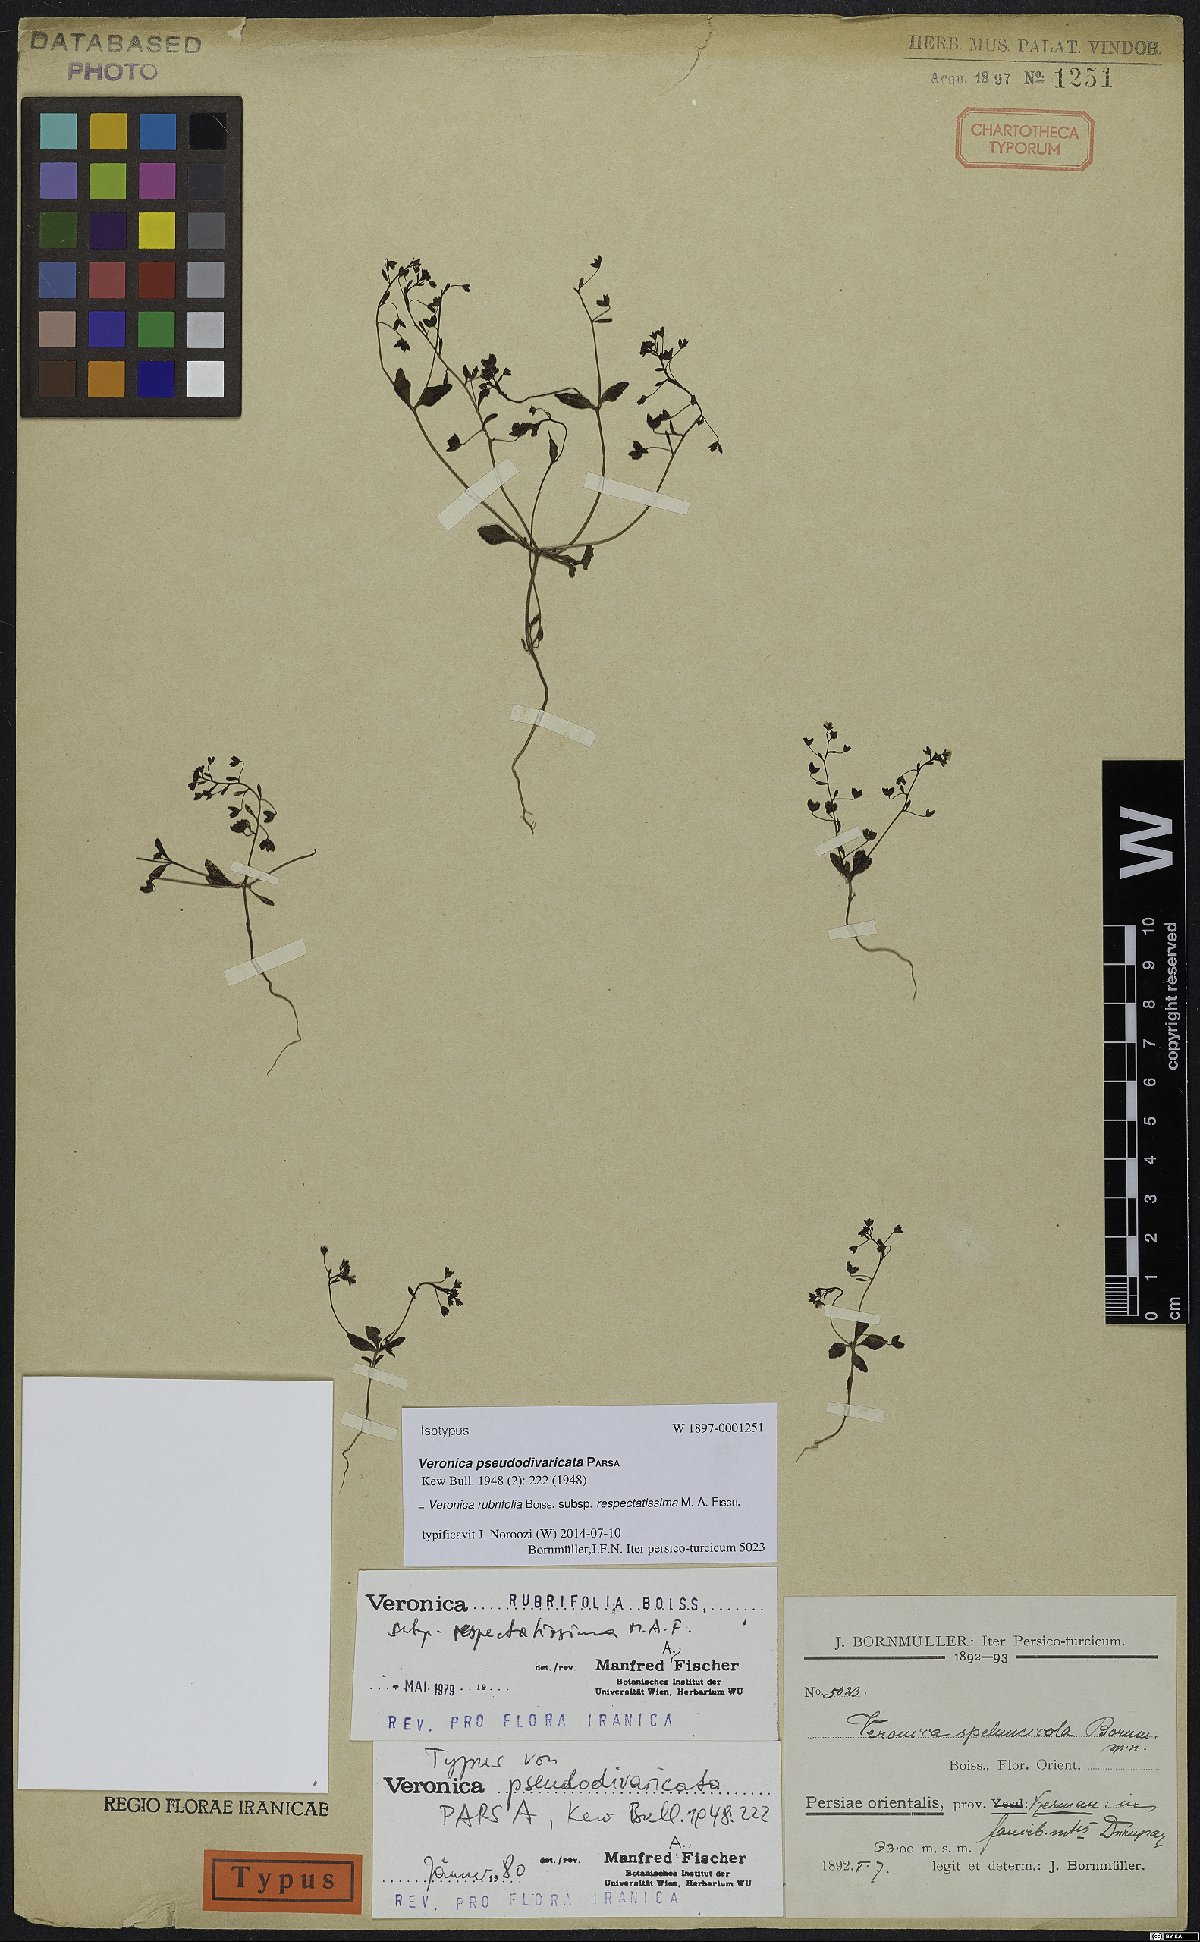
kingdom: Plantae
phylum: Tracheophyta
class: Magnoliopsida
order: Lamiales
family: Plantaginaceae
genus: Veronica
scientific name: Veronica rubrifolia
